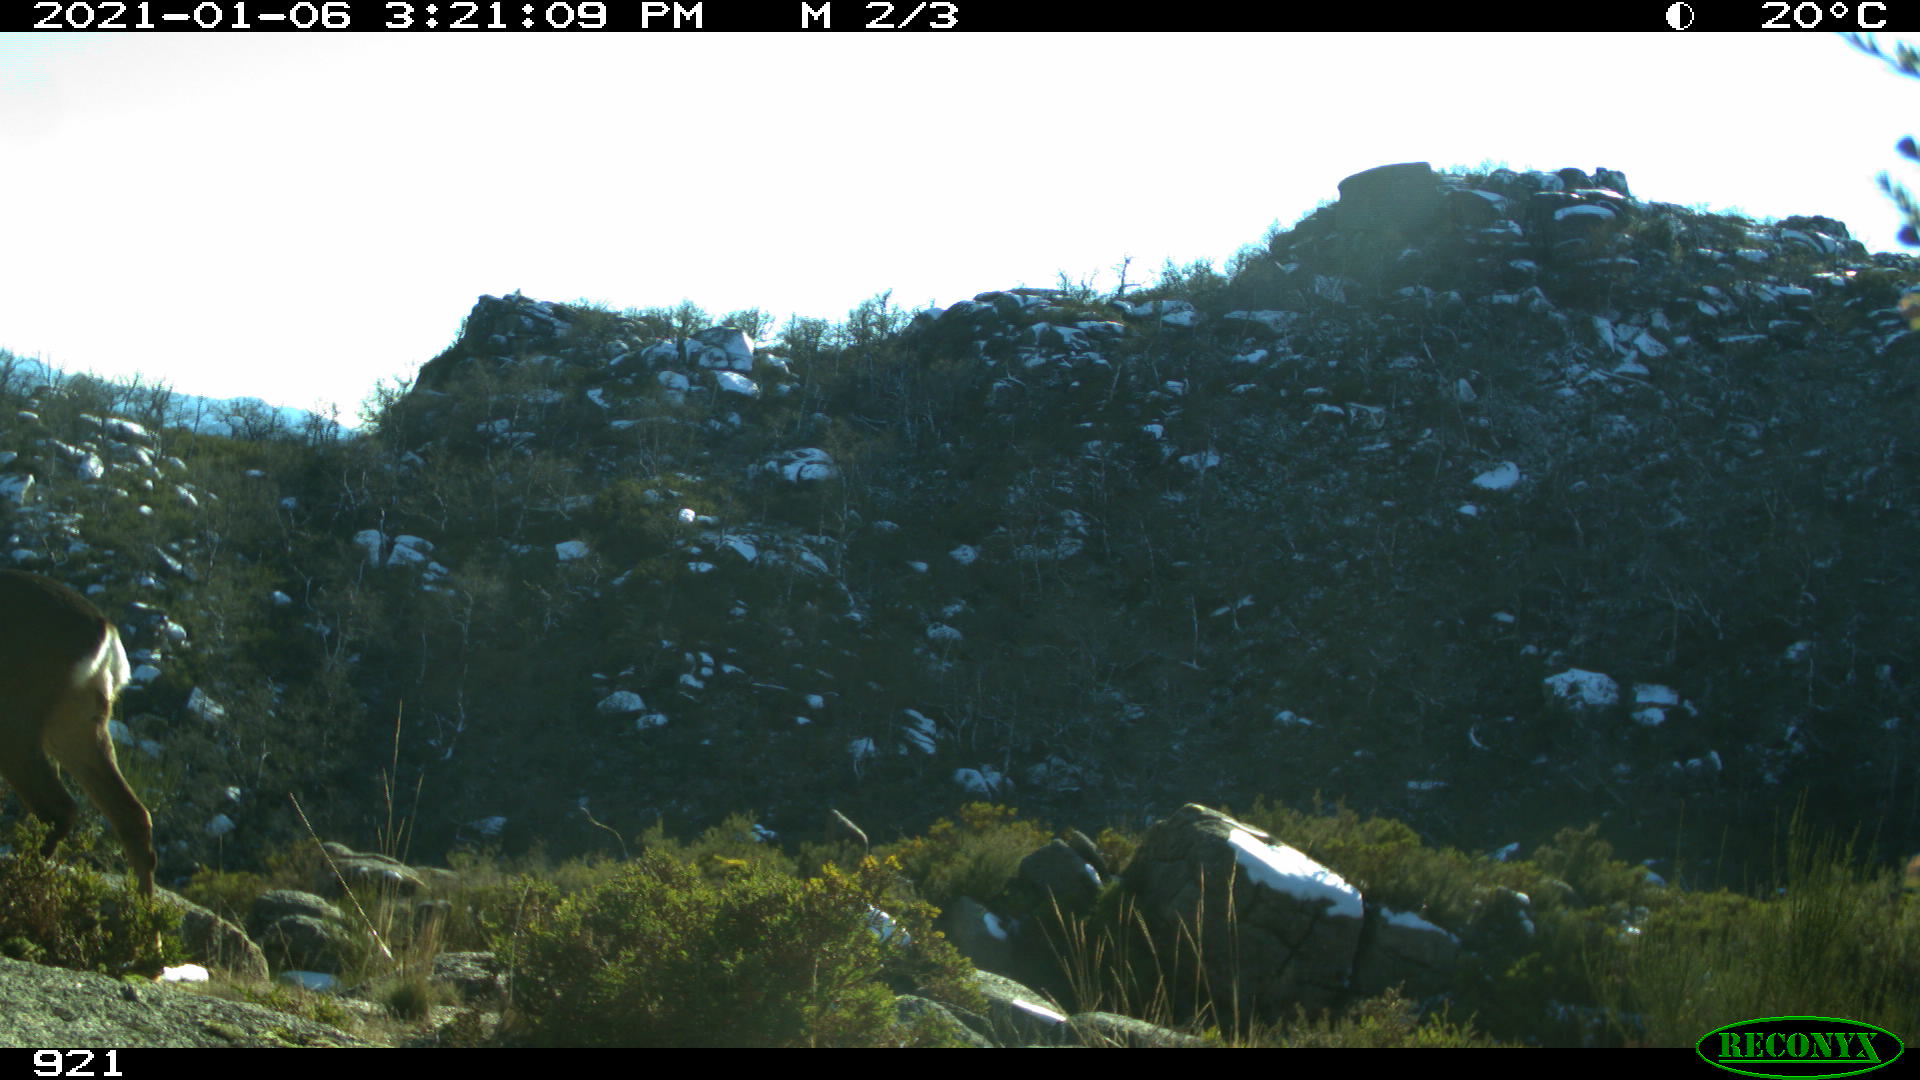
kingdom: Animalia
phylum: Chordata
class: Mammalia
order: Artiodactyla
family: Cervidae
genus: Capreolus
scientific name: Capreolus capreolus
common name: Western roe deer
